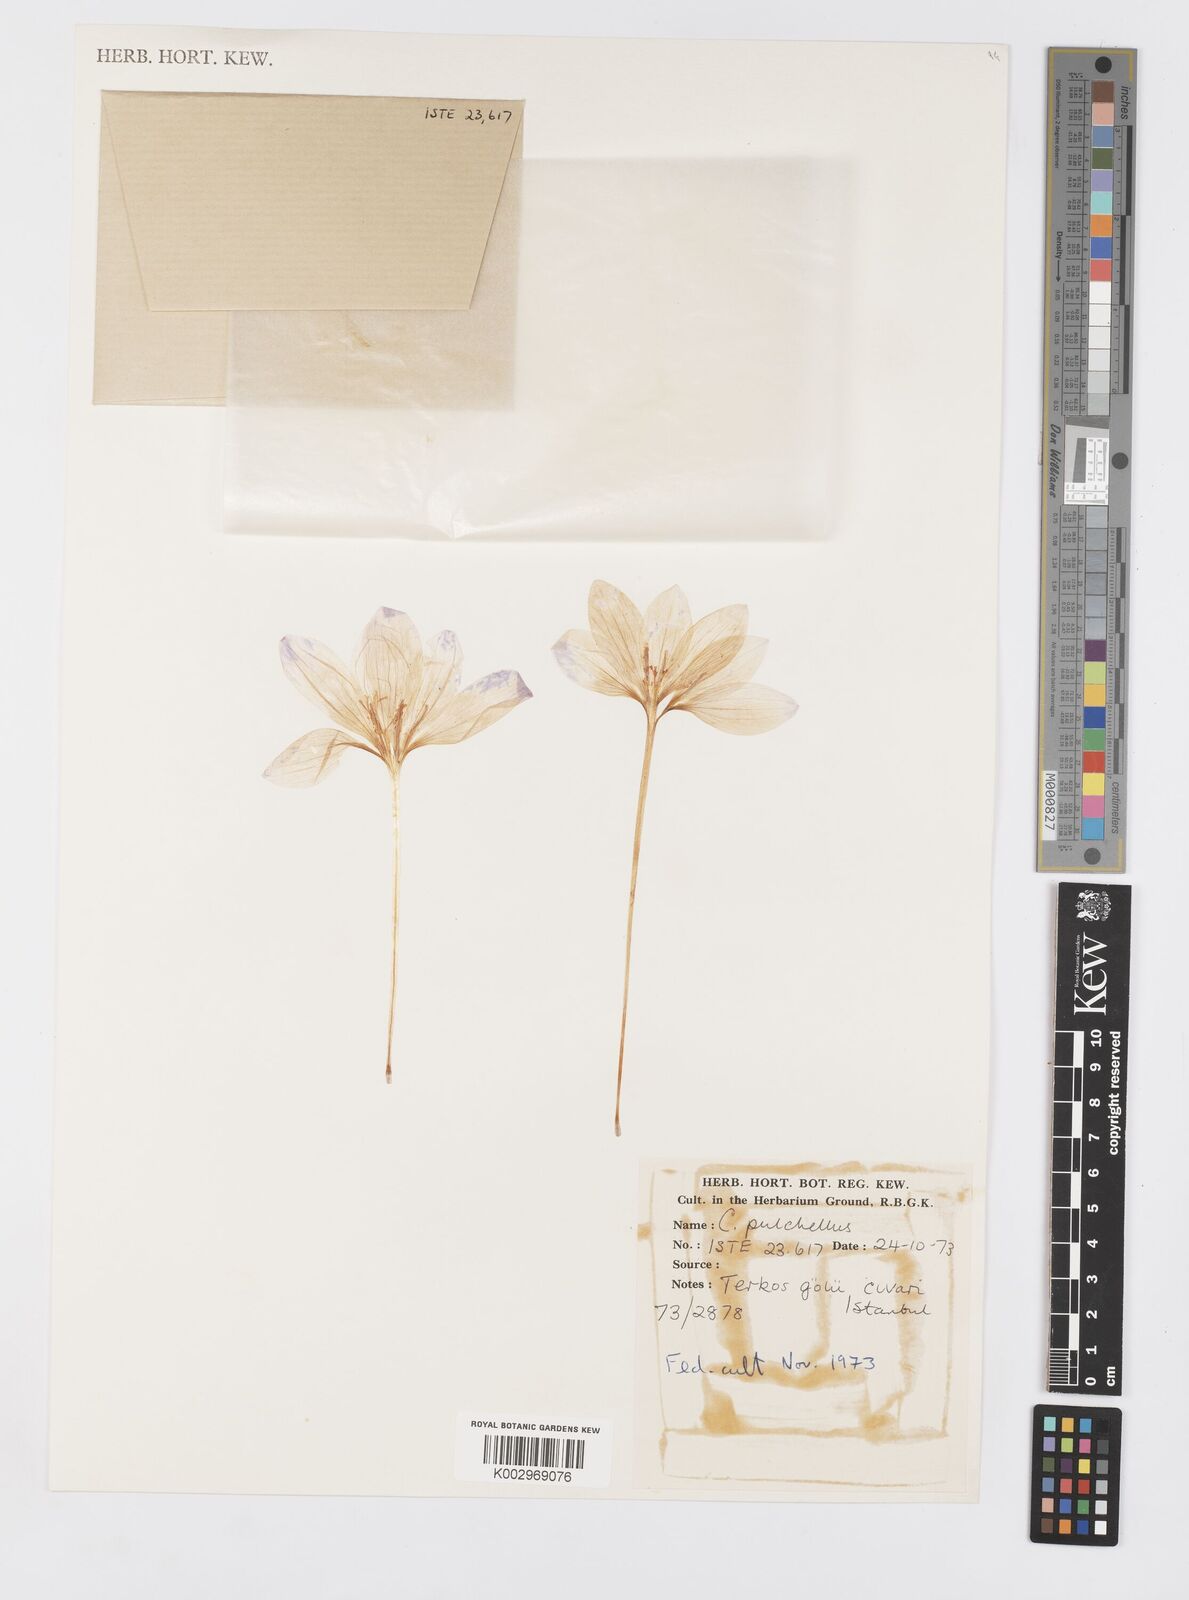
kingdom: Plantae
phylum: Tracheophyta
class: Liliopsida
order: Asparagales
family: Iridaceae
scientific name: Iridaceae
